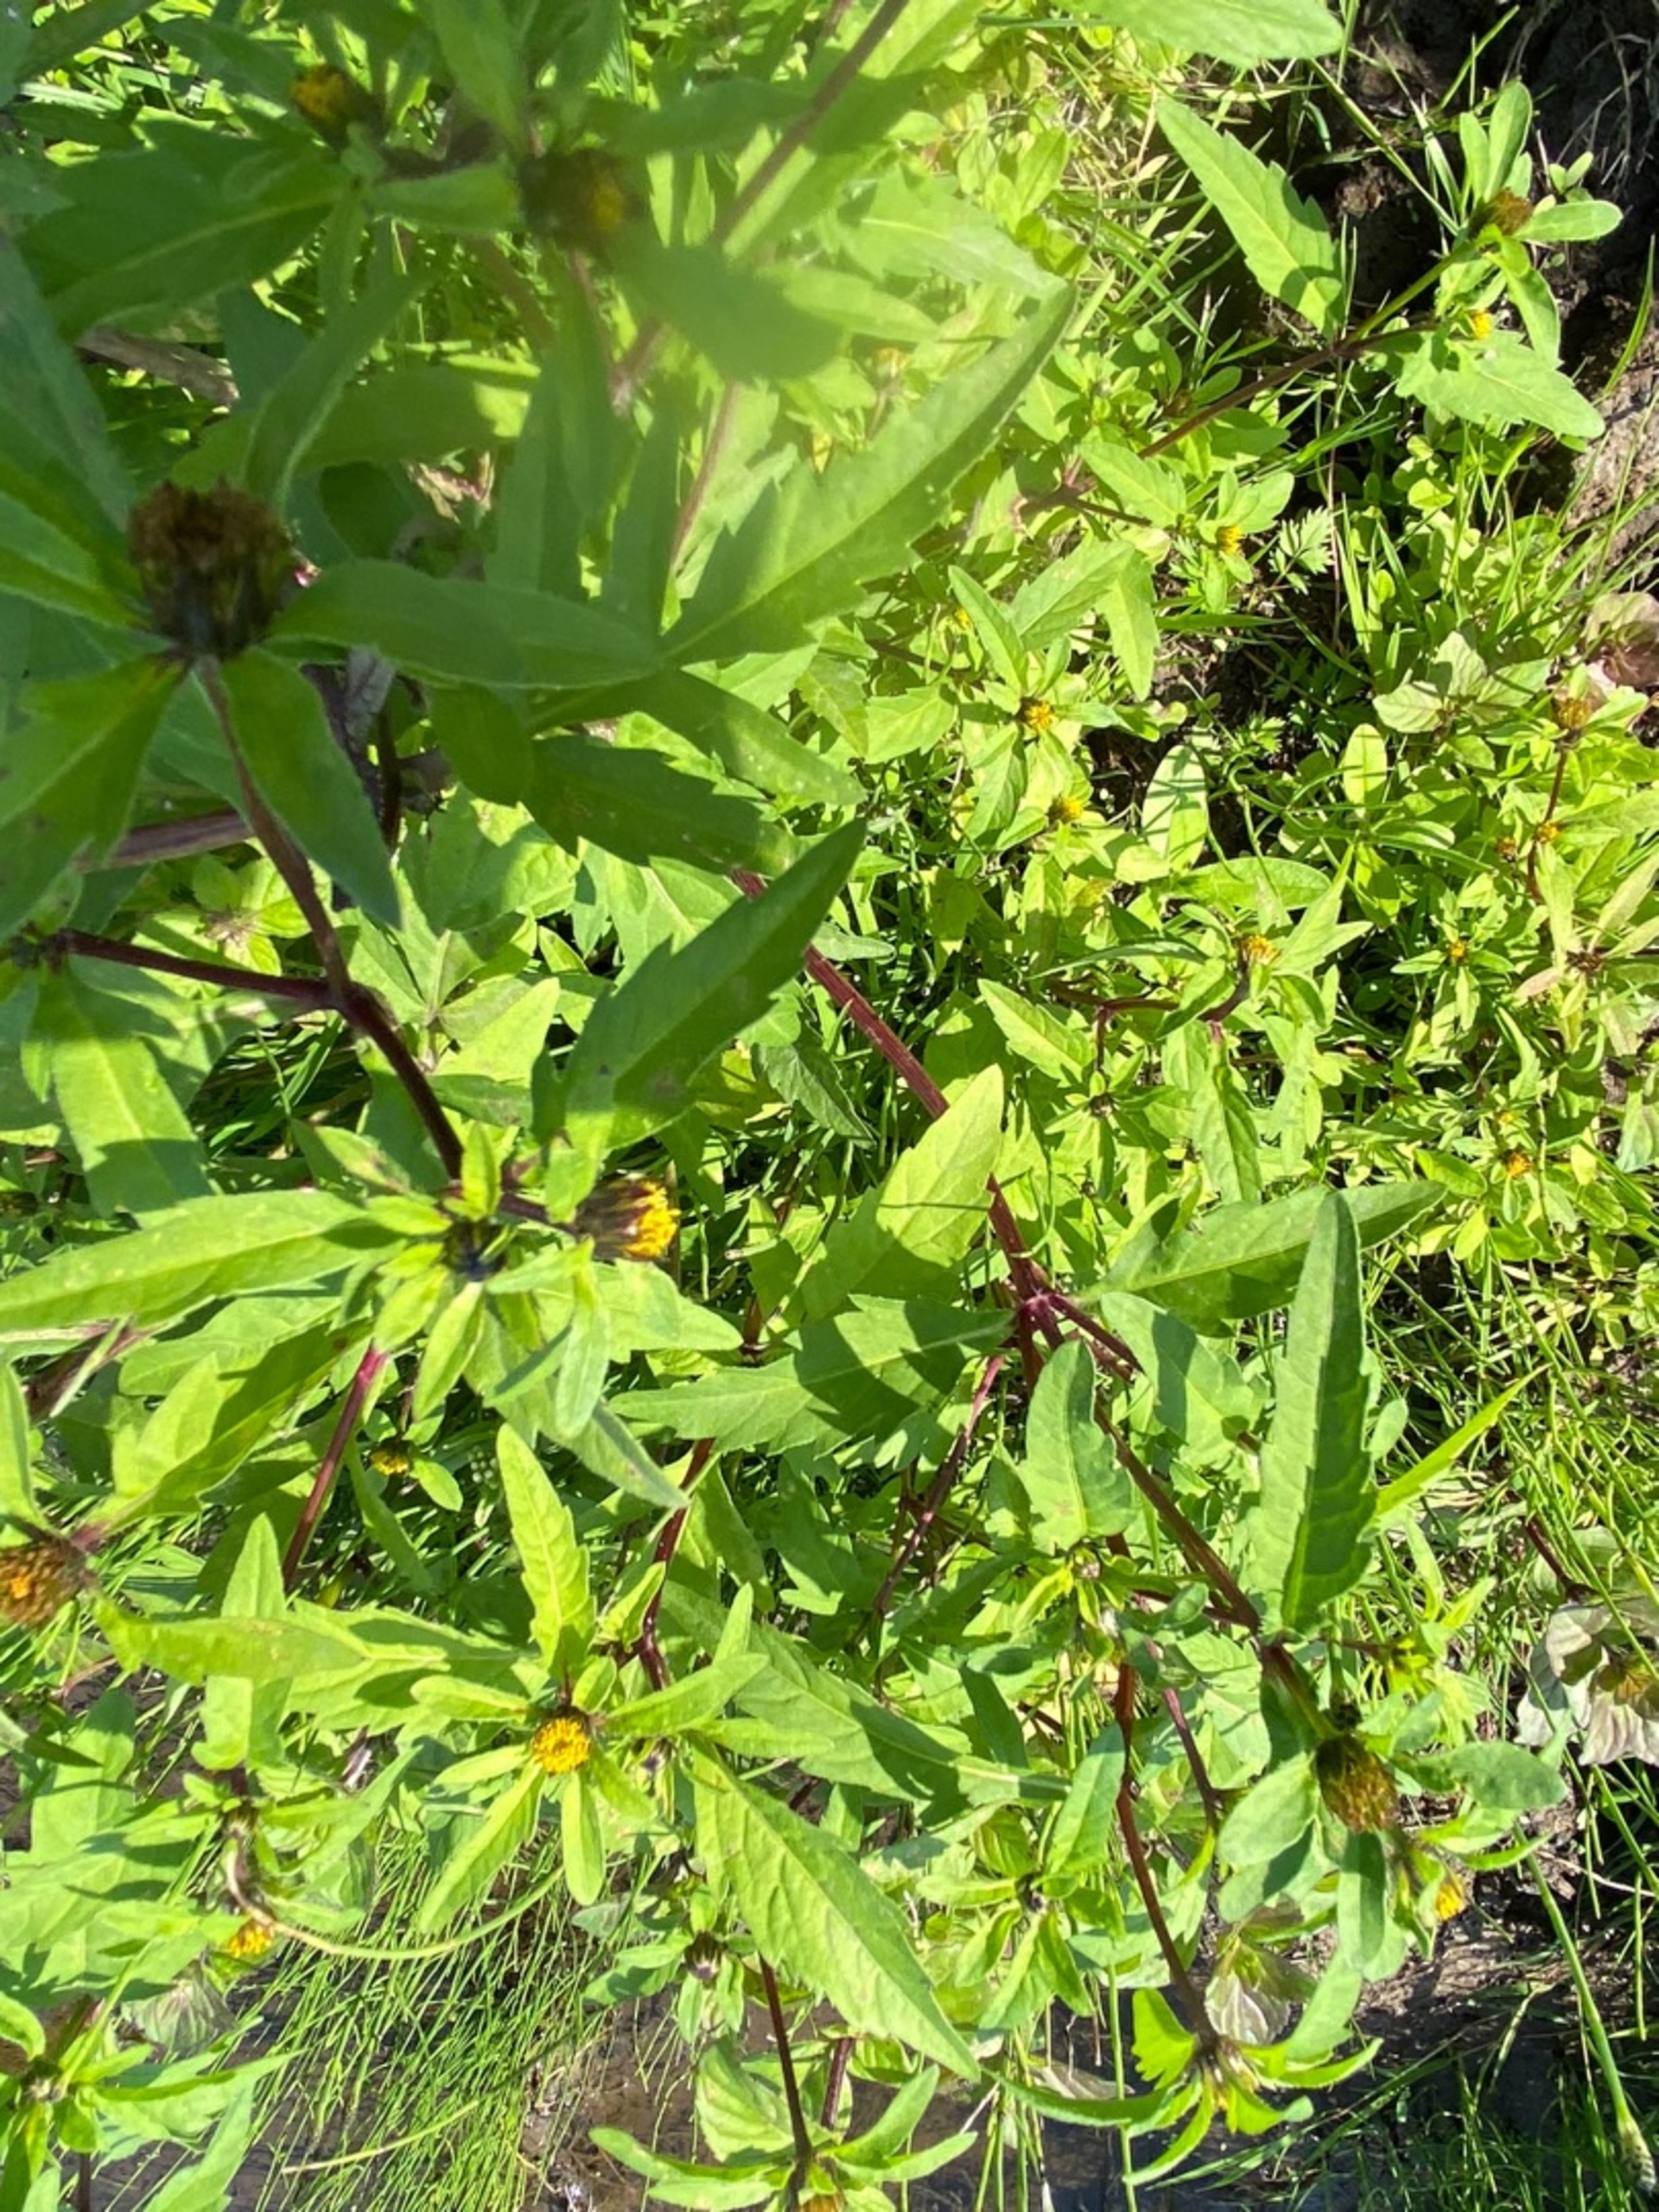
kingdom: Plantae
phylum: Tracheophyta
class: Magnoliopsida
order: Asterales
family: Asteraceae
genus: Bidens
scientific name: Bidens tripartita
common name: Fliget brøndsel
